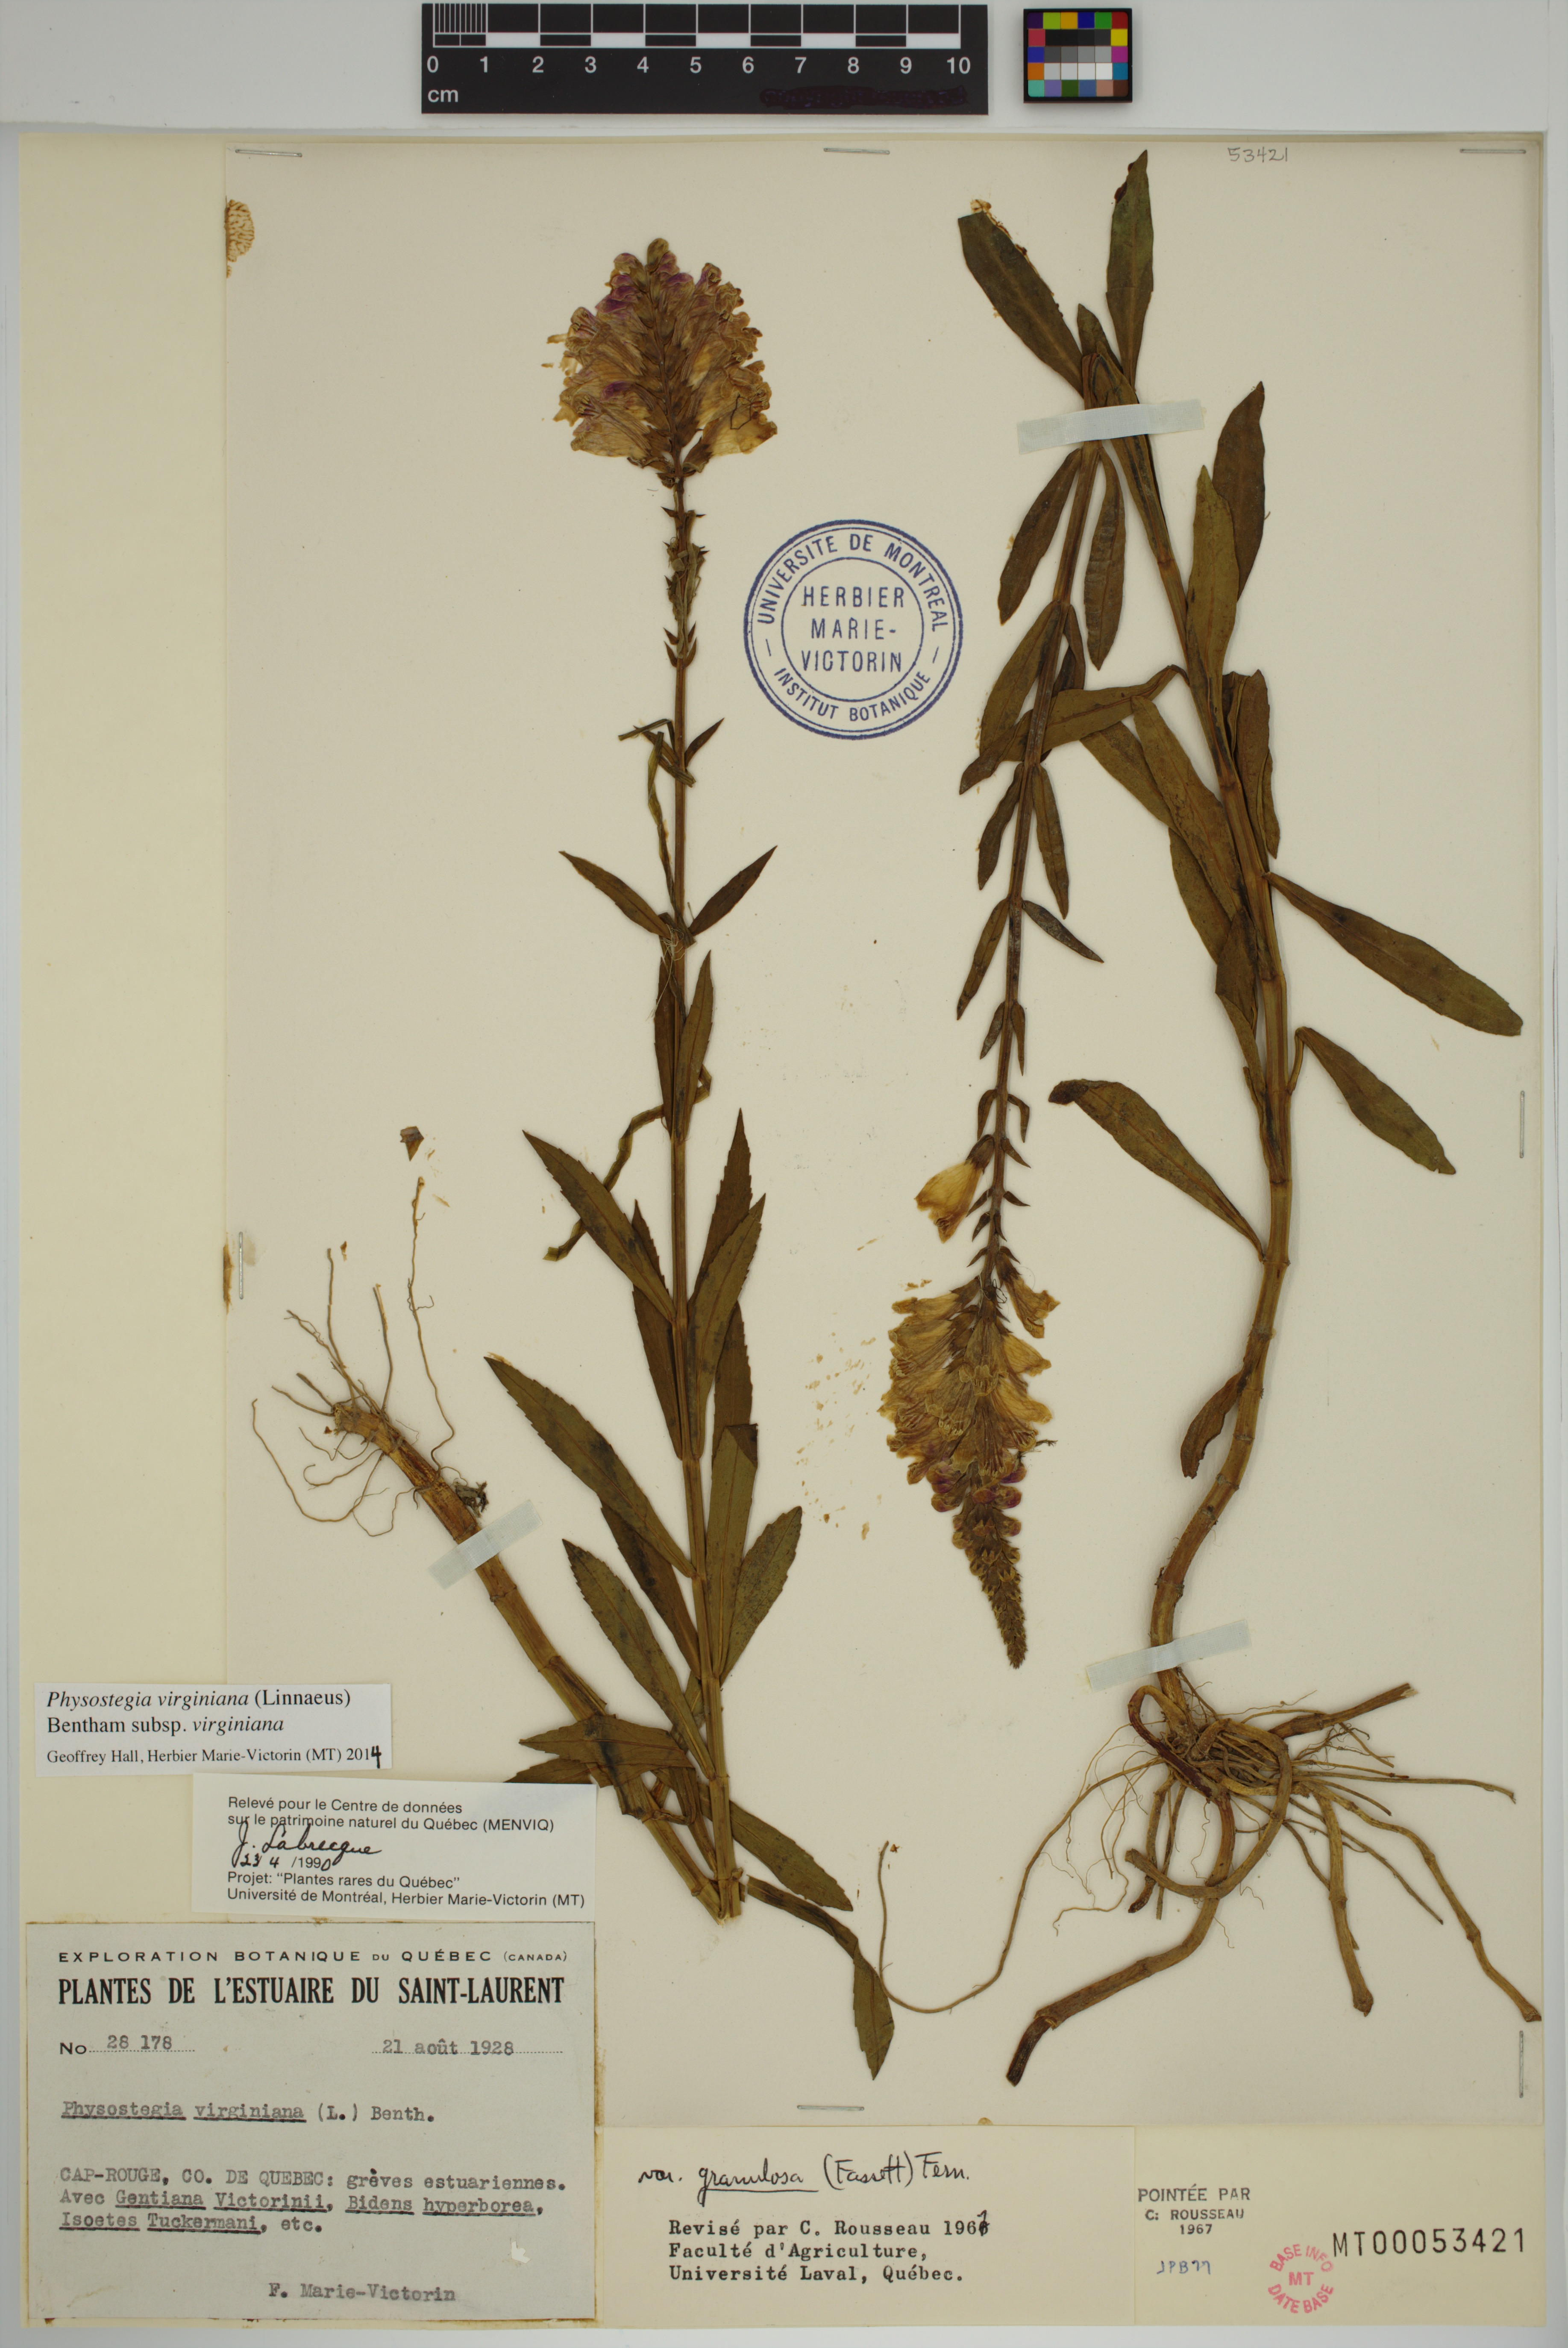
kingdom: Plantae
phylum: Tracheophyta
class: Magnoliopsida
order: Lamiales
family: Lamiaceae
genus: Physostegia
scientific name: Physostegia virginiana
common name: Obedient-plant
